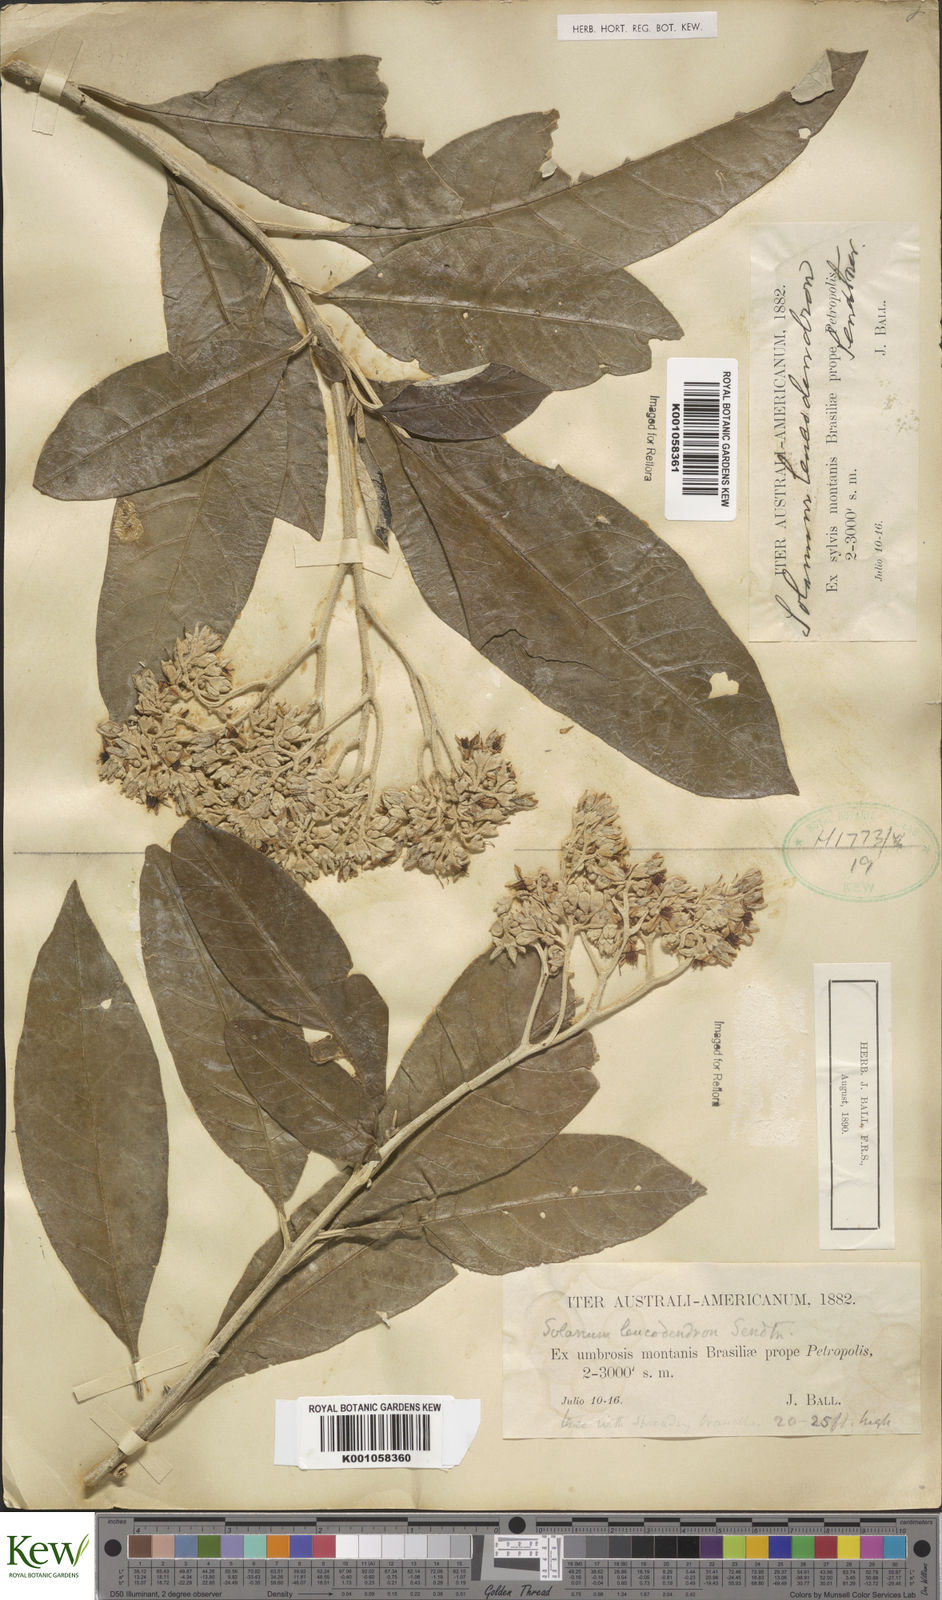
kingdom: Plantae
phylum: Tracheophyta
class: Magnoliopsida
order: Solanales
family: Solanaceae
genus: Solanum
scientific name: Solanum leucodendron
